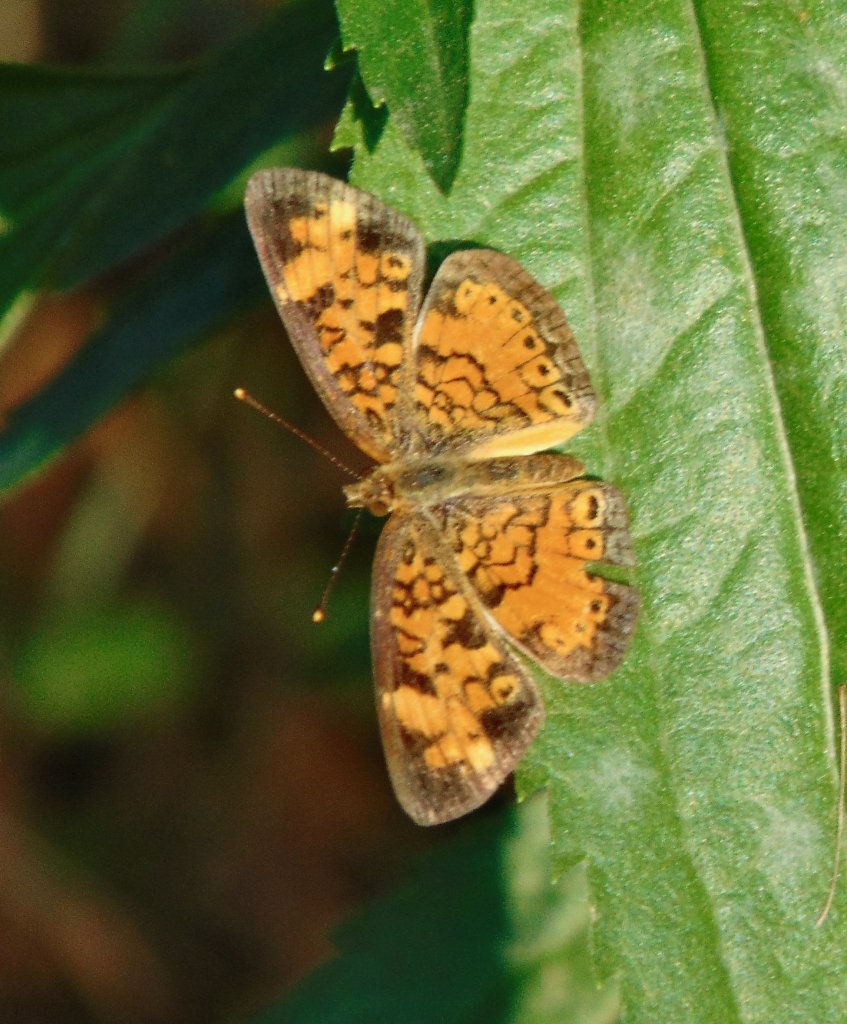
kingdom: Animalia
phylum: Arthropoda
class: Insecta
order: Lepidoptera
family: Nymphalidae
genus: Phyciodes
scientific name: Phyciodes tharos
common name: Pearl Crescent
